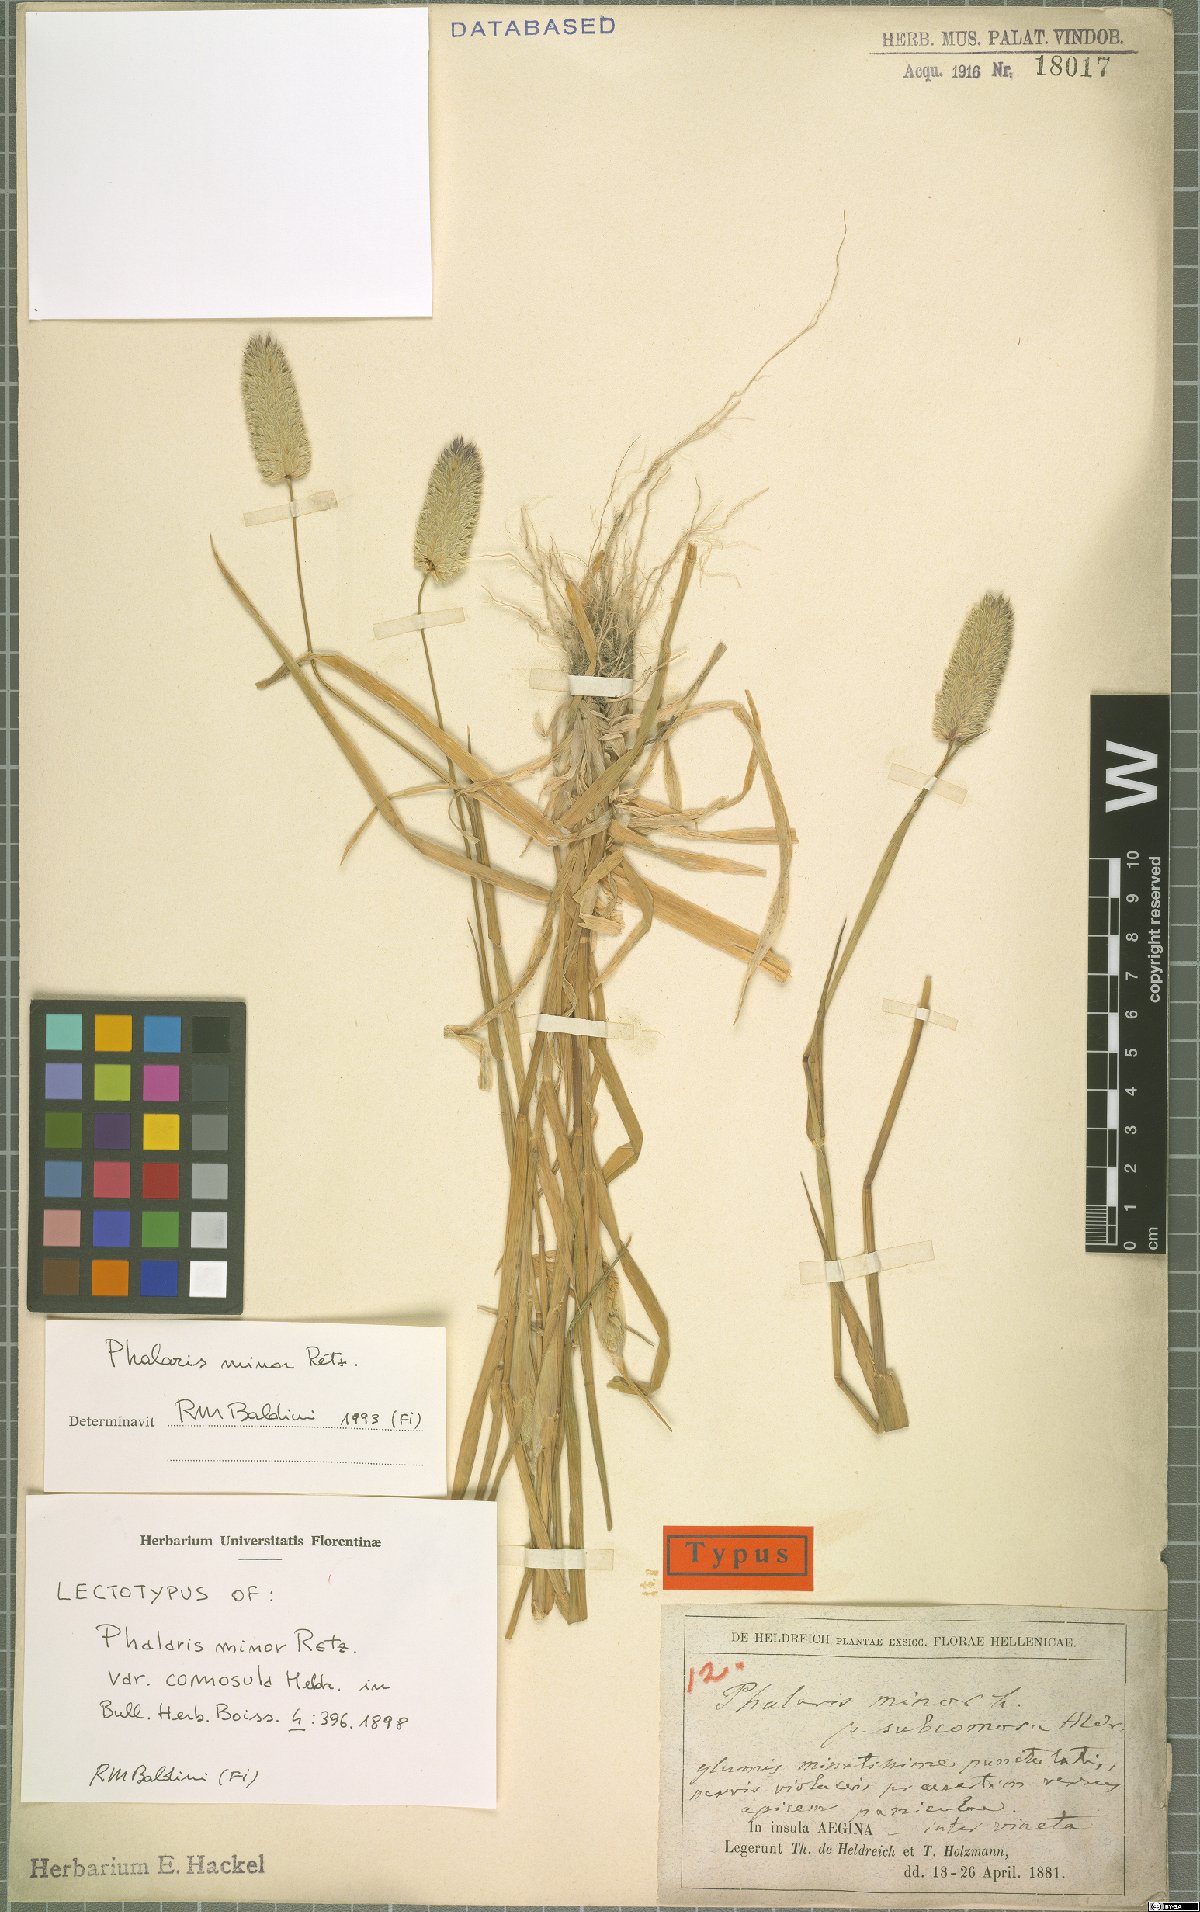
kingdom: Plantae
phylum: Tracheophyta
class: Liliopsida
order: Poales
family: Poaceae
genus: Phalaris
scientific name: Phalaris minor
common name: Littleseed canarygrass
